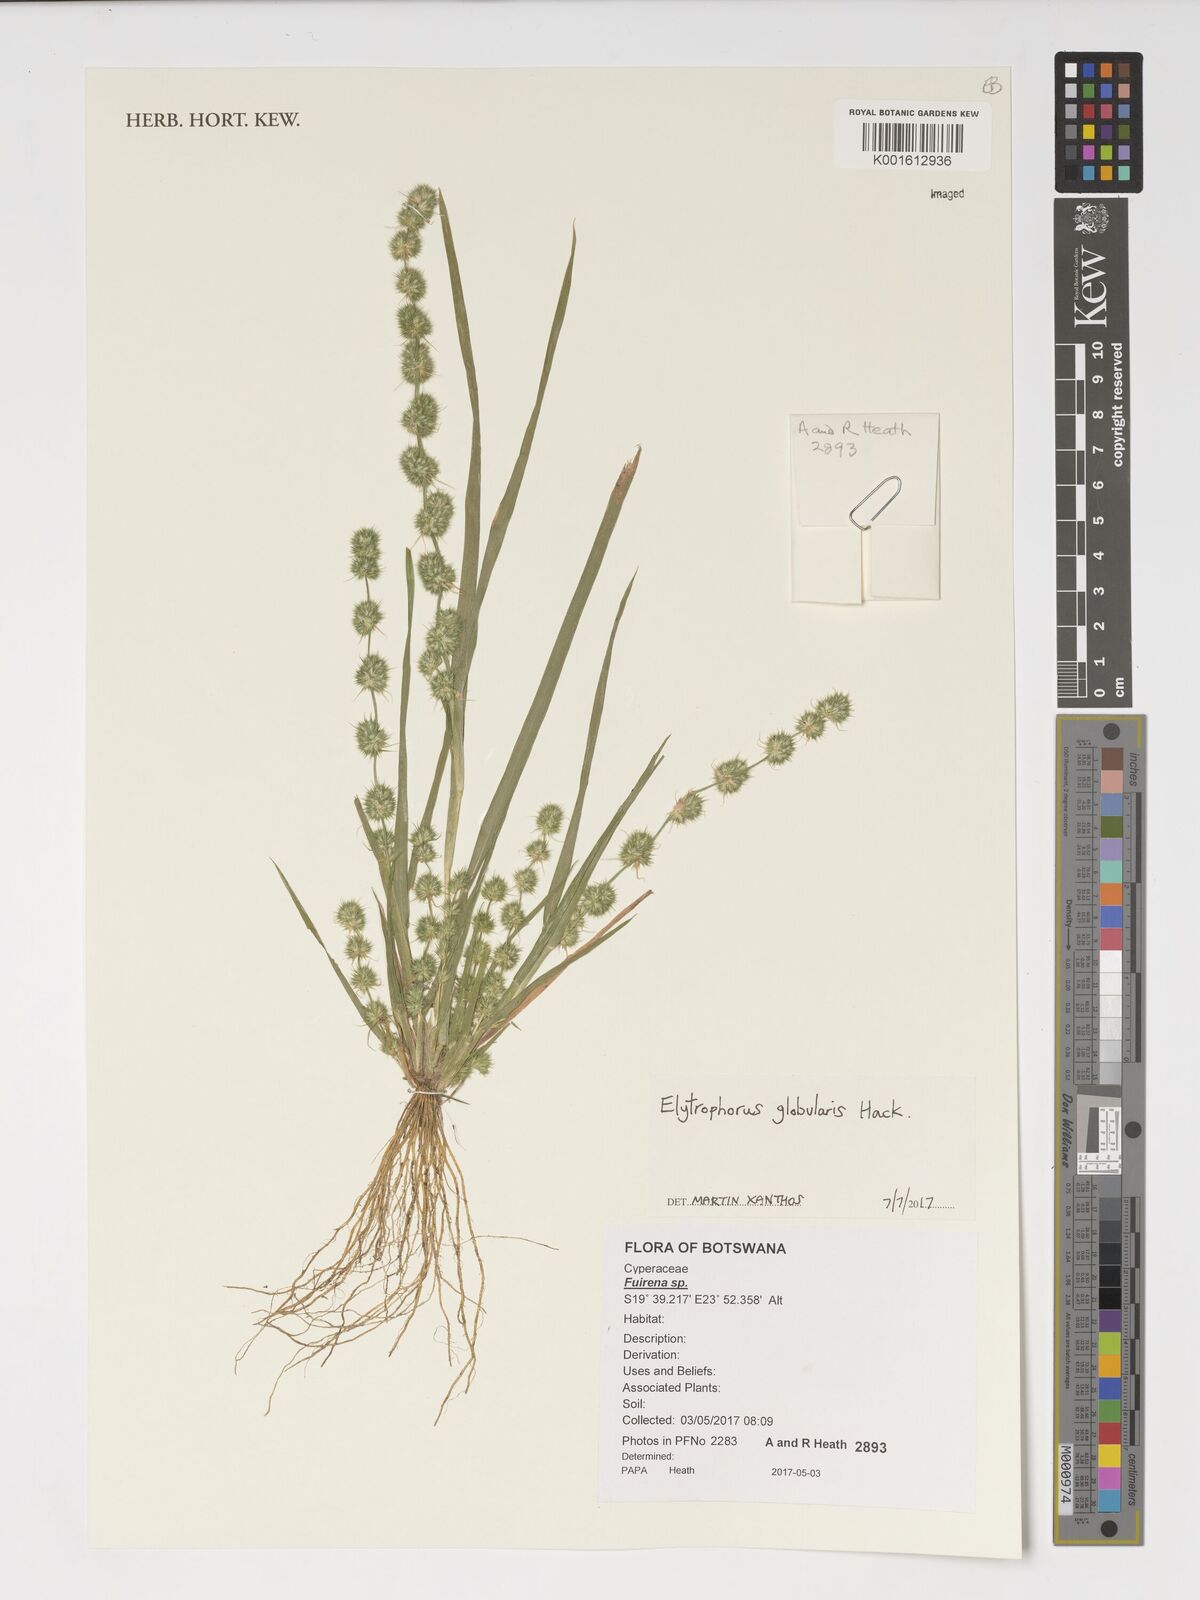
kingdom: Plantae
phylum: Tracheophyta
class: Liliopsida
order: Poales
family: Poaceae
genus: Elytrophorus
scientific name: Elytrophorus globularis
